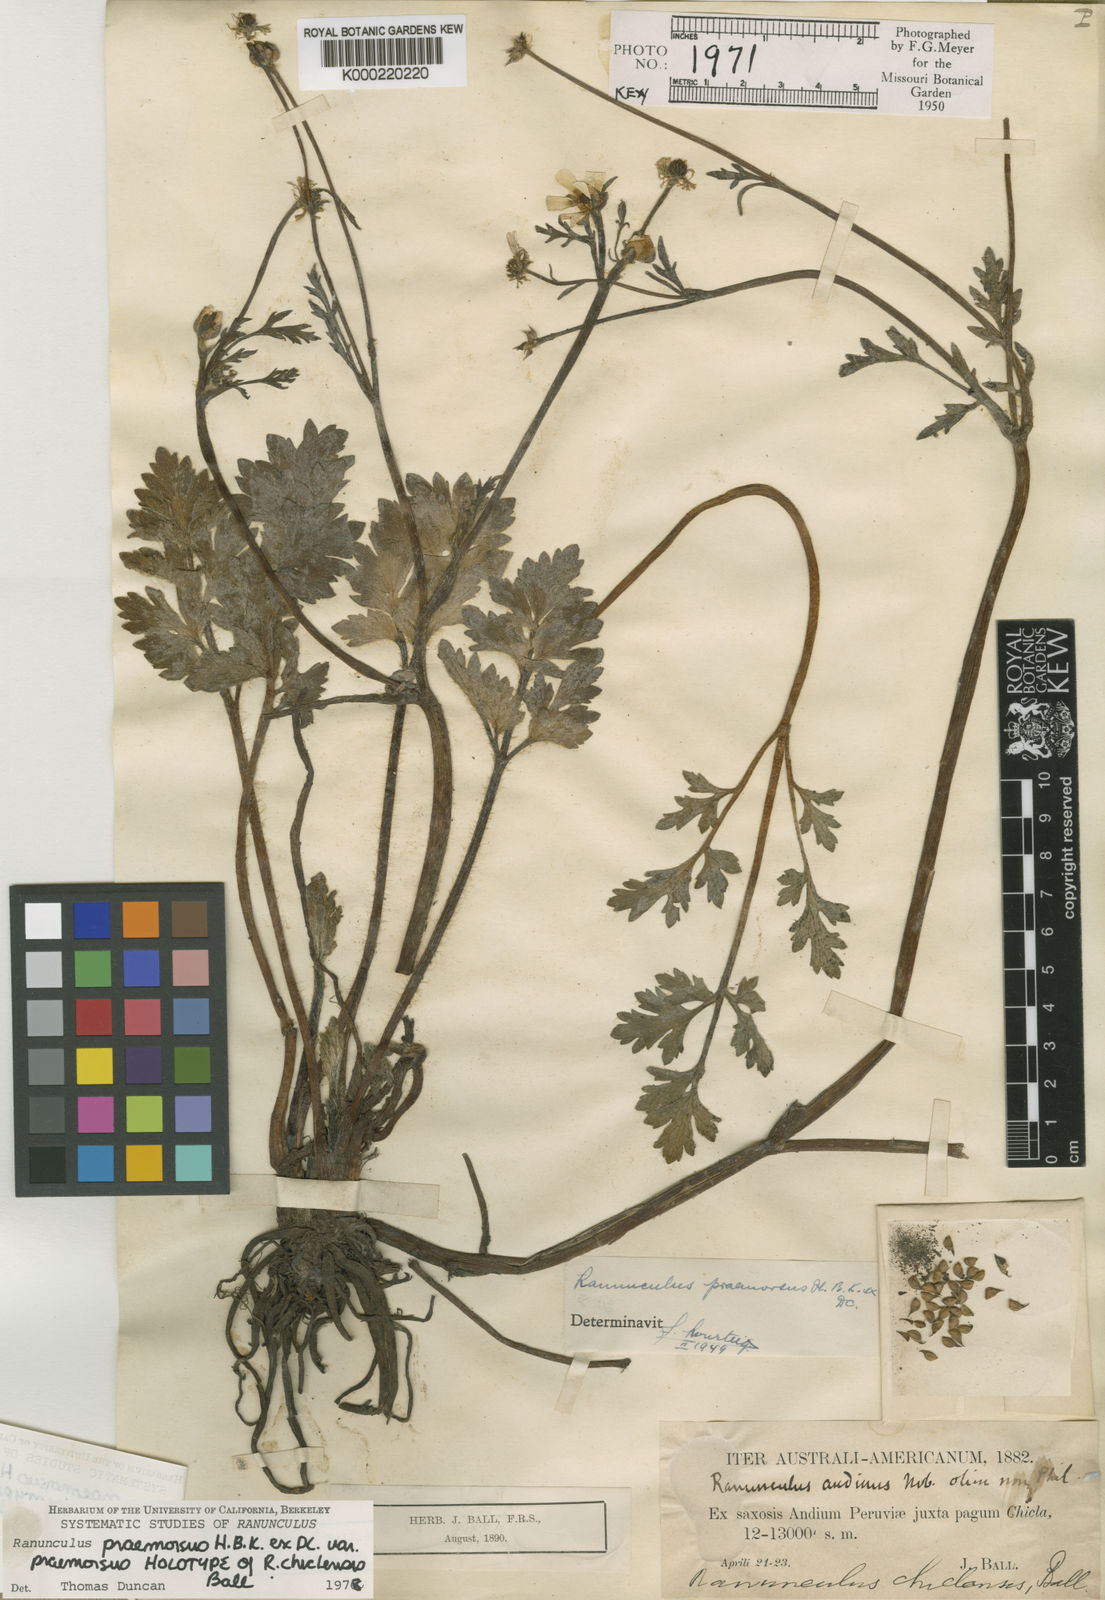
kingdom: Plantae
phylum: Tracheophyta
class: Magnoliopsida
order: Ranunculales
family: Ranunculaceae
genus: Ranunculus
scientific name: Ranunculus praemorsus
